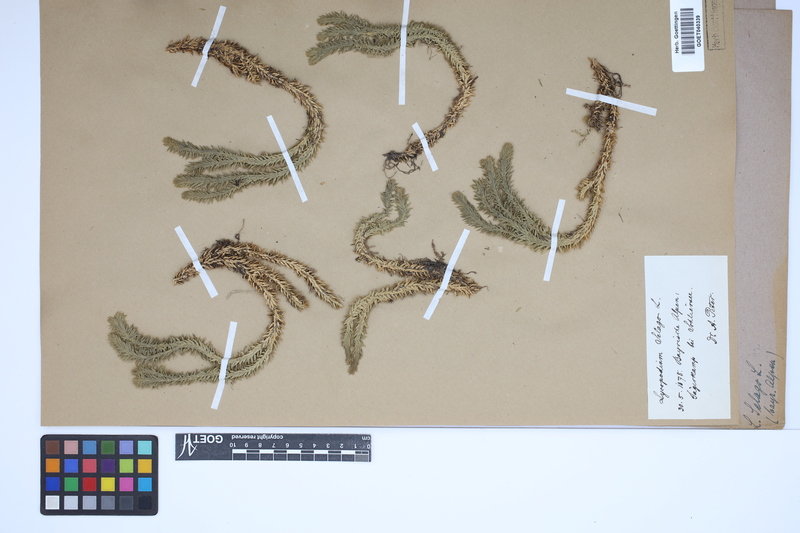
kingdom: Plantae
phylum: Tracheophyta
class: Lycopodiopsida
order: Lycopodiales
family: Lycopodiaceae
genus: Huperzia
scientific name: Huperzia selago
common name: Northern firmoss
